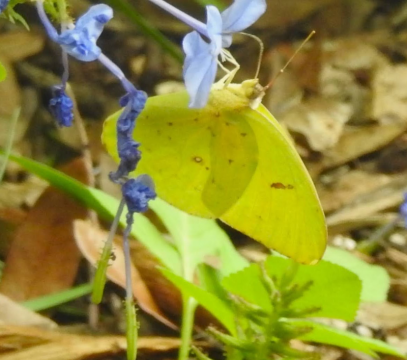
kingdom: Animalia
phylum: Arthropoda
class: Insecta
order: Lepidoptera
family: Pieridae
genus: Phoebis
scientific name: Phoebis sennae
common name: Cloudless Sulphur
